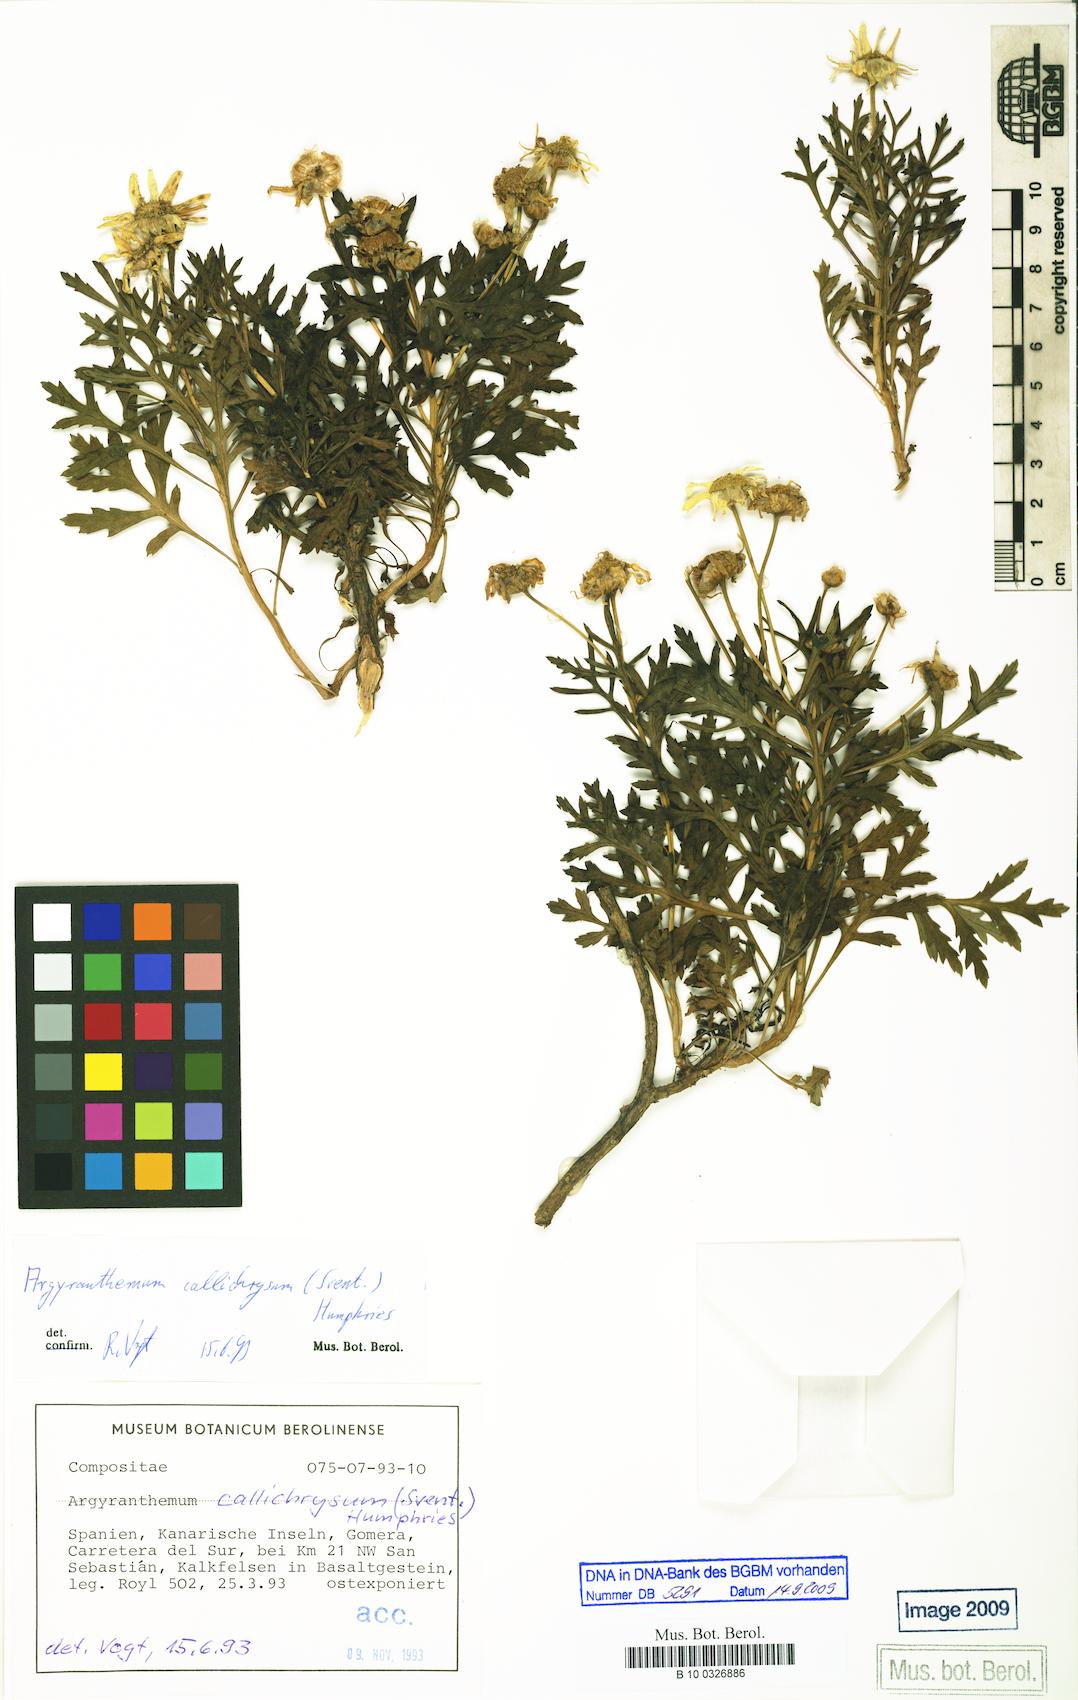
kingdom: Plantae
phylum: Tracheophyta
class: Magnoliopsida
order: Asterales
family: Asteraceae
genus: Argyranthemum
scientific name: Argyranthemum callichrysum
